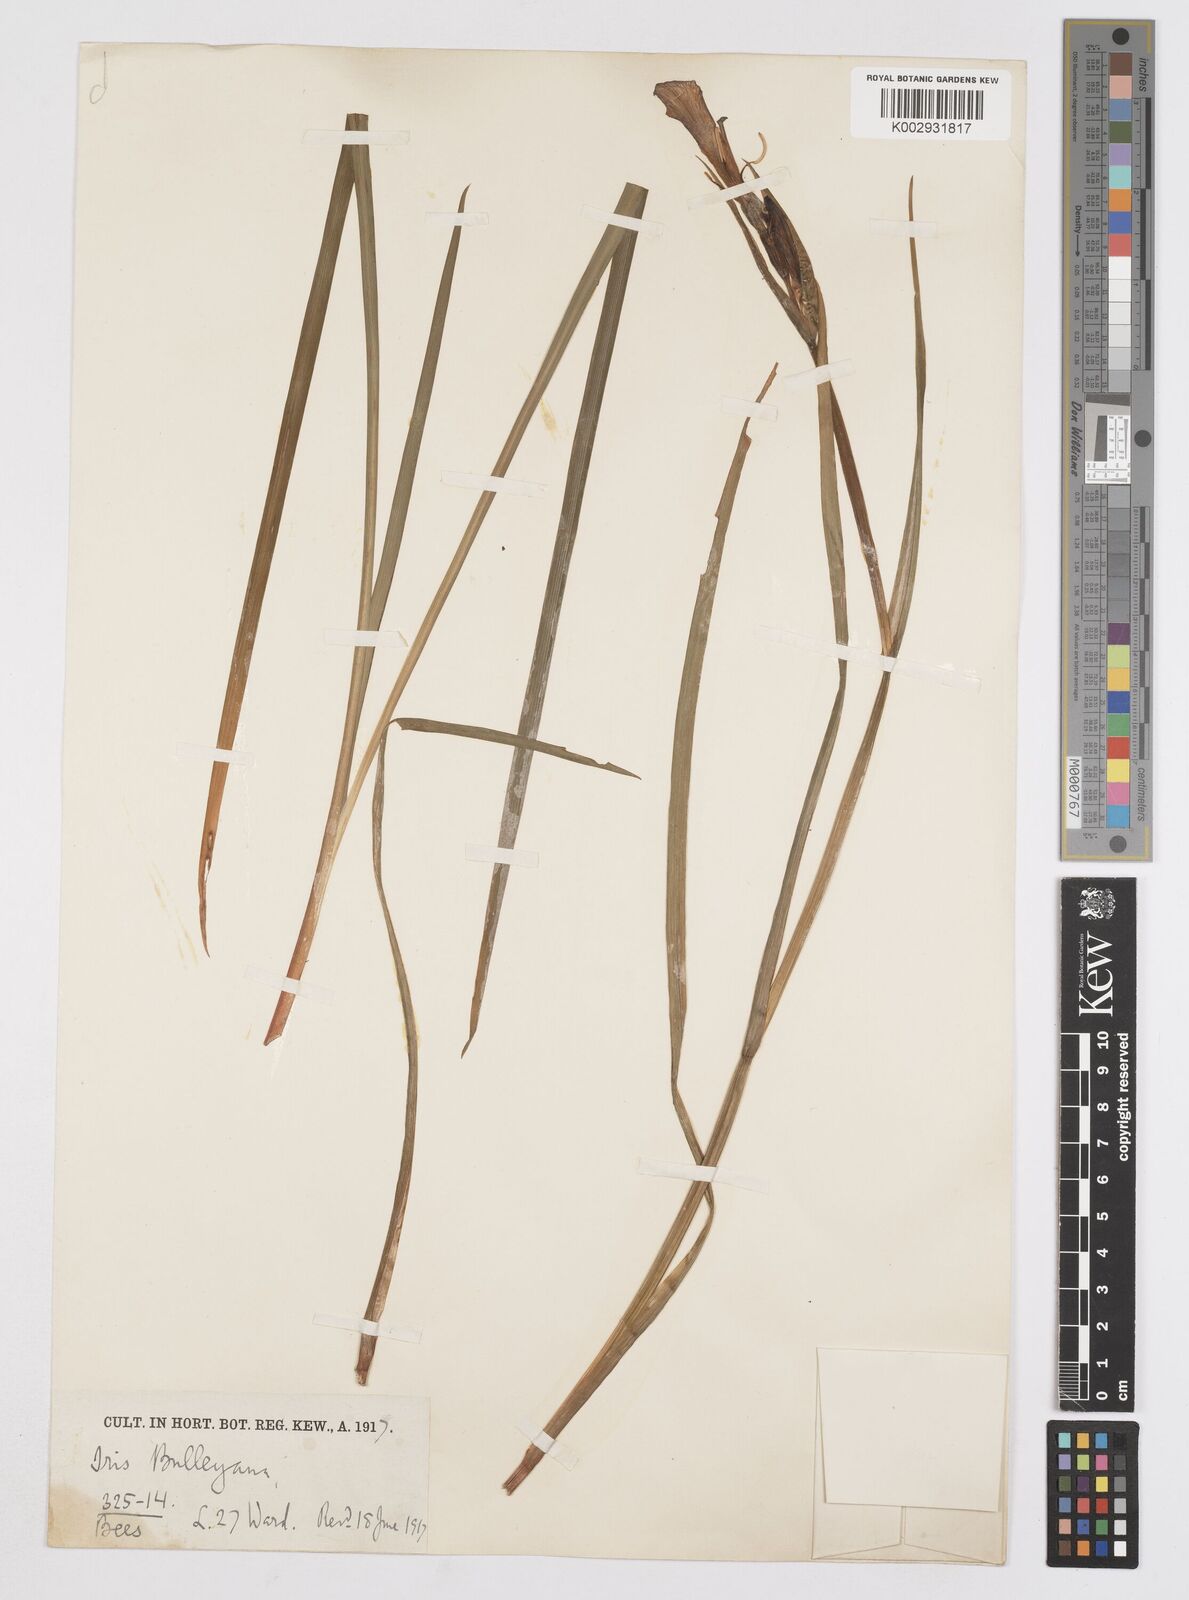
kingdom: Plantae
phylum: Tracheophyta
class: Liliopsida
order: Asparagales
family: Iridaceae
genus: Iris
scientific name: Iris clarkei
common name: Tibet iris
